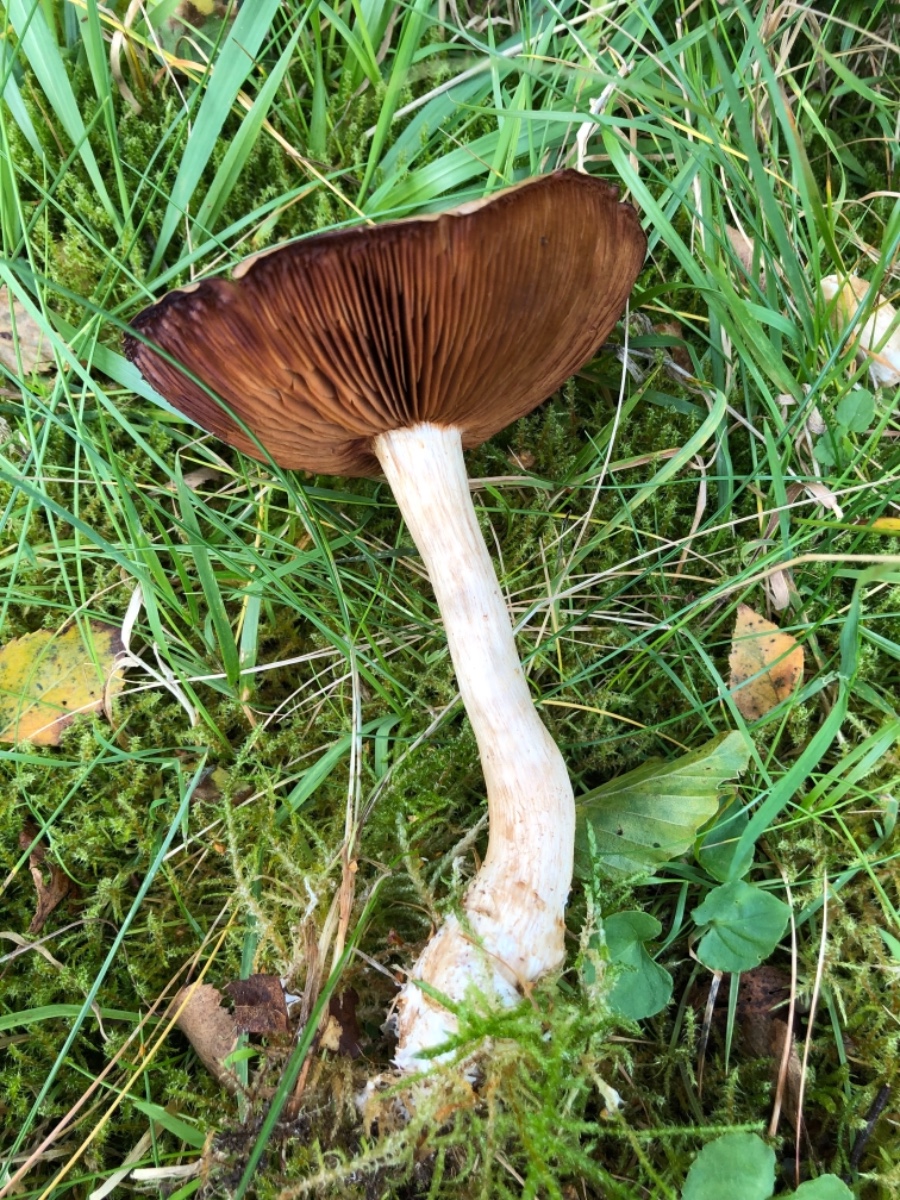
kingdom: Fungi
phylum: Basidiomycota
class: Agaricomycetes
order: Agaricales
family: Cortinariaceae
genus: Cortinarius
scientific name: Cortinarius
